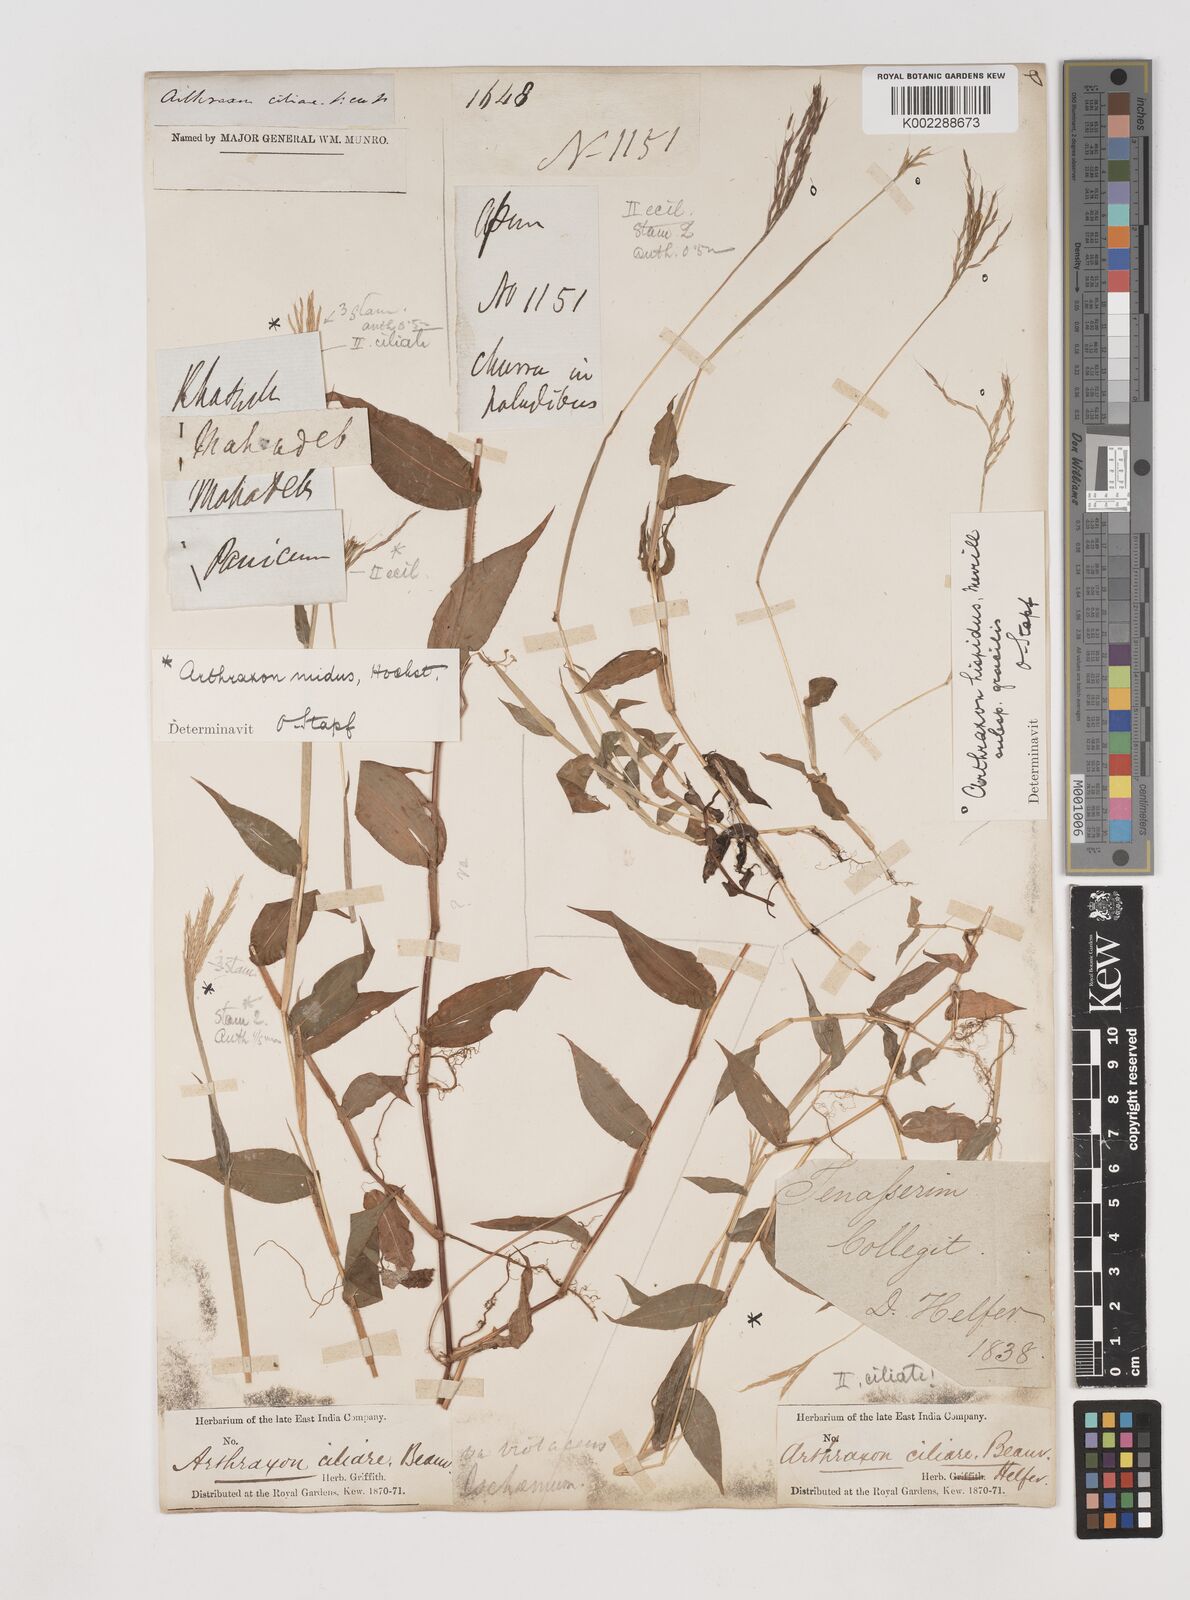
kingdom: Plantae
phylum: Tracheophyta
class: Liliopsida
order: Poales
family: Poaceae
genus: Arthraxon
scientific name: Arthraxon nudus
